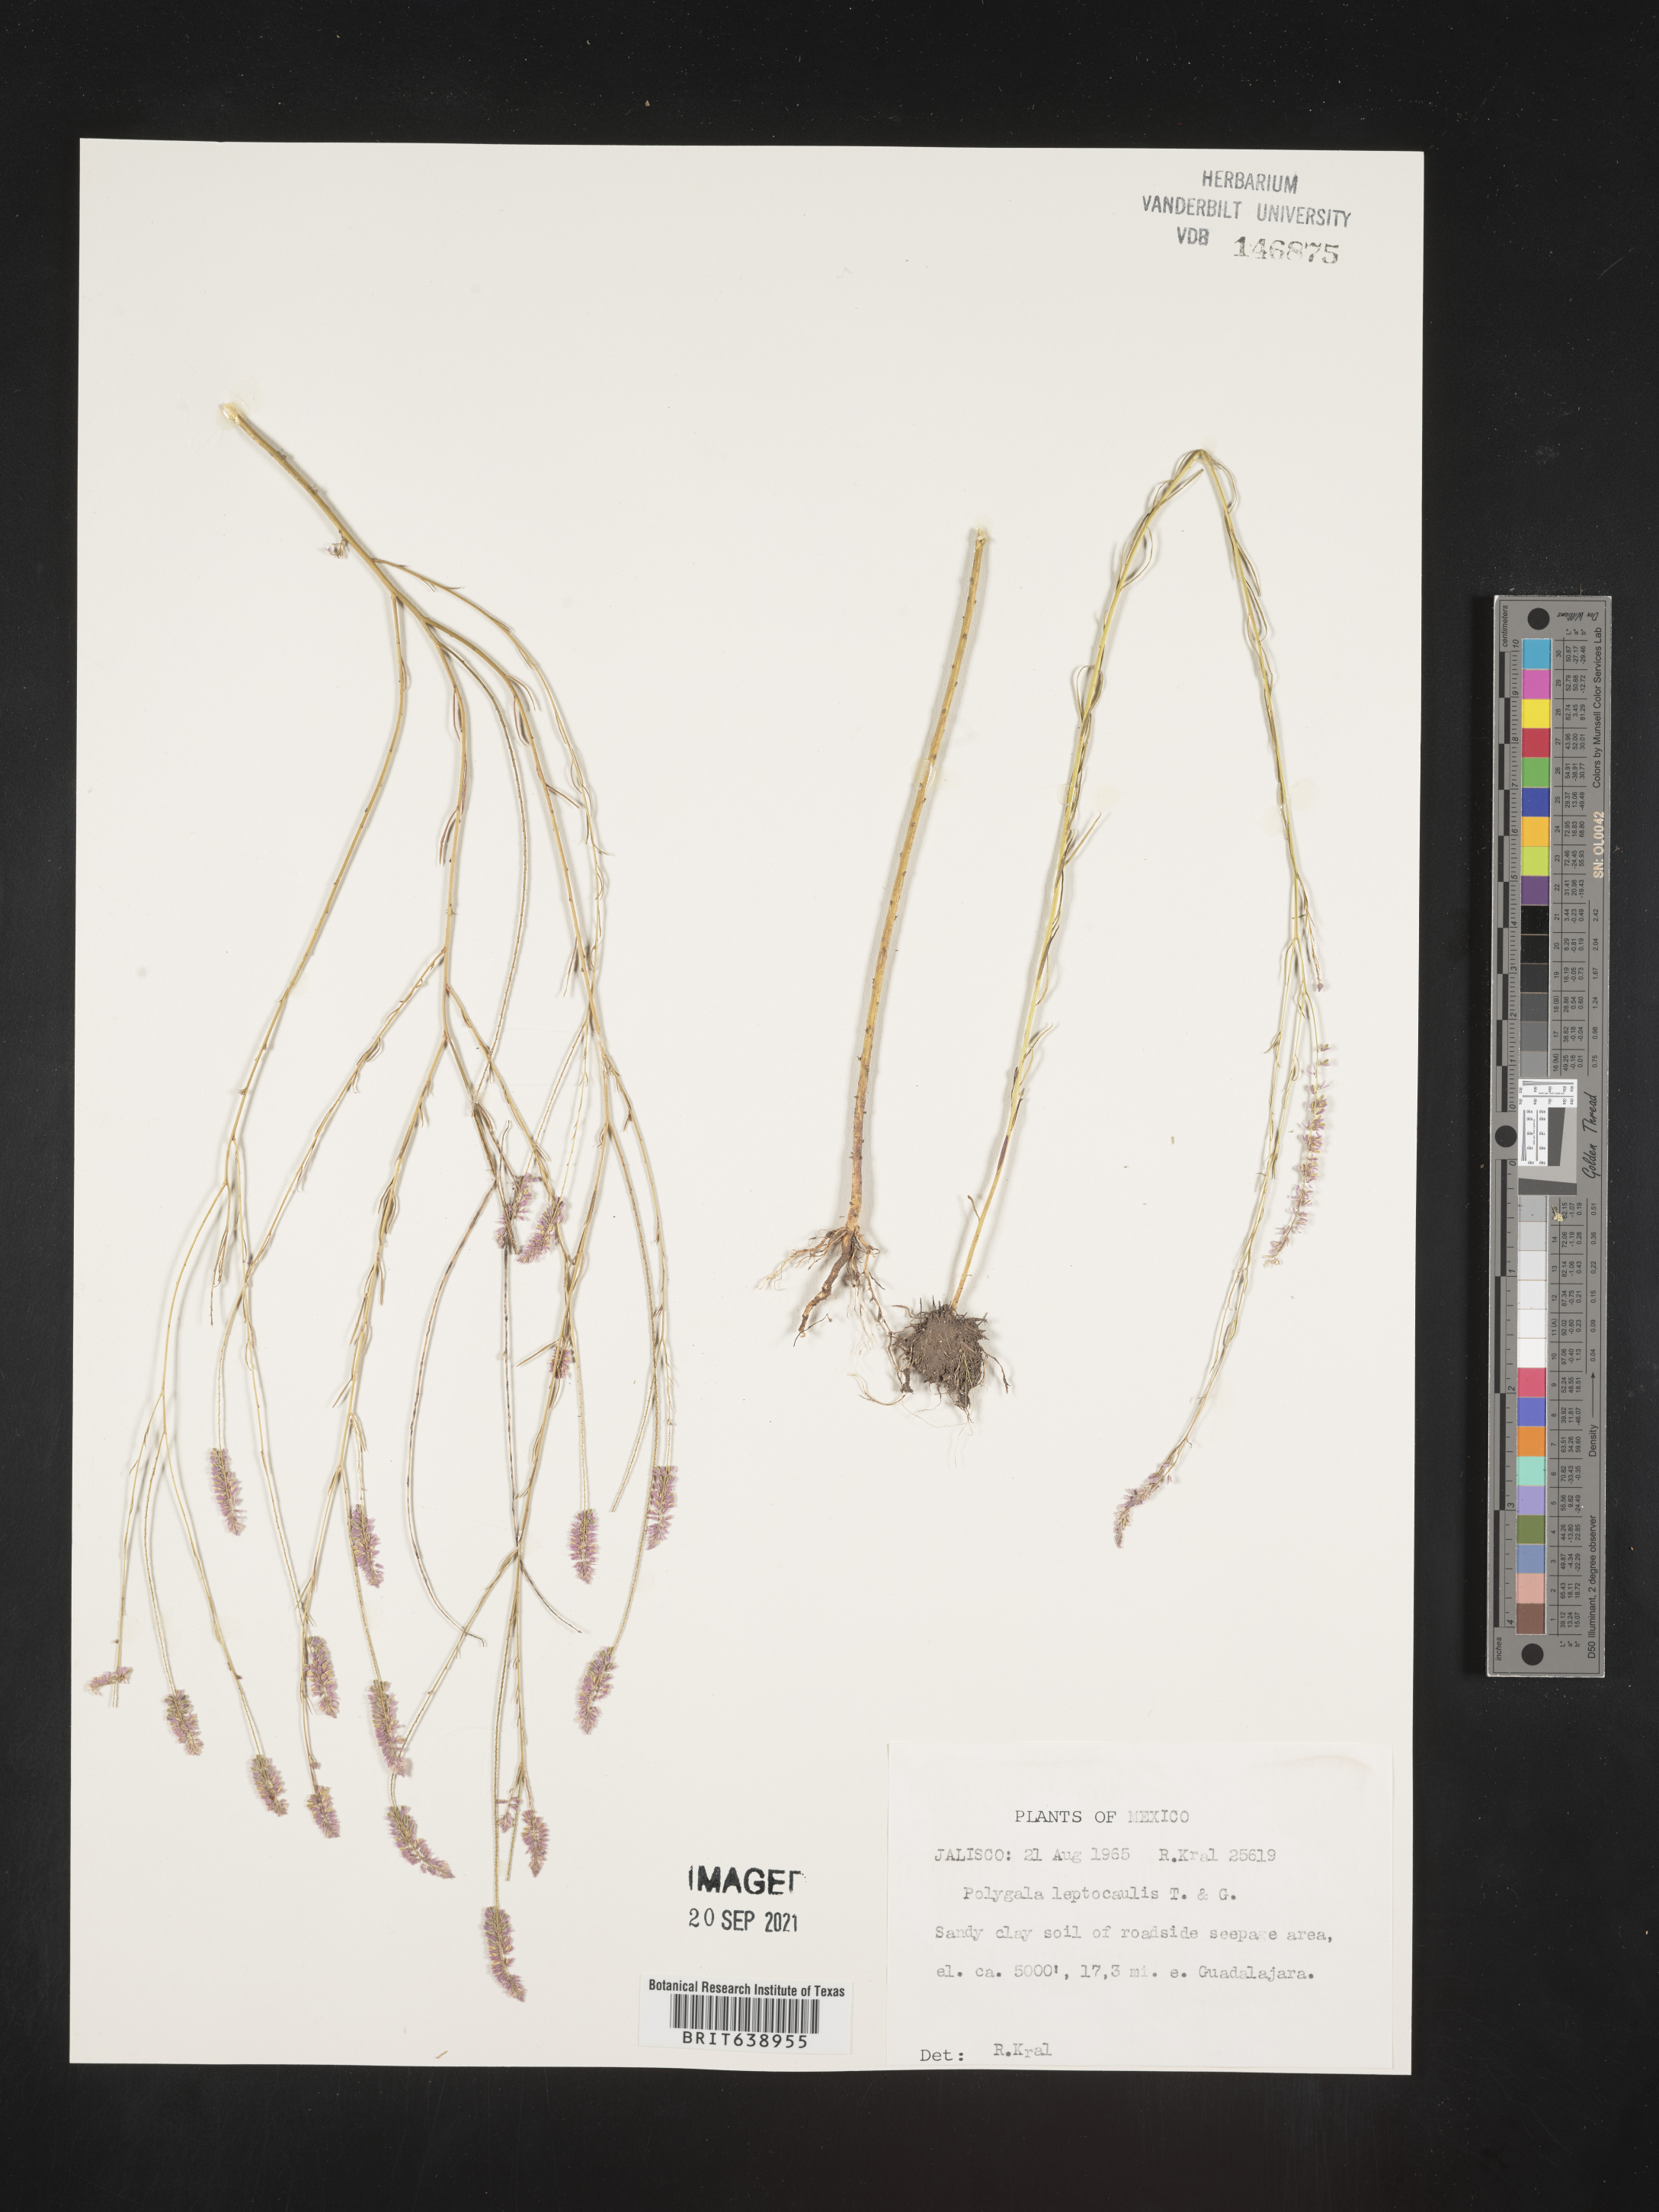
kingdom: Plantae
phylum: Tracheophyta
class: Magnoliopsida
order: Fabales
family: Polygalaceae
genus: Polygala
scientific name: Polygala
